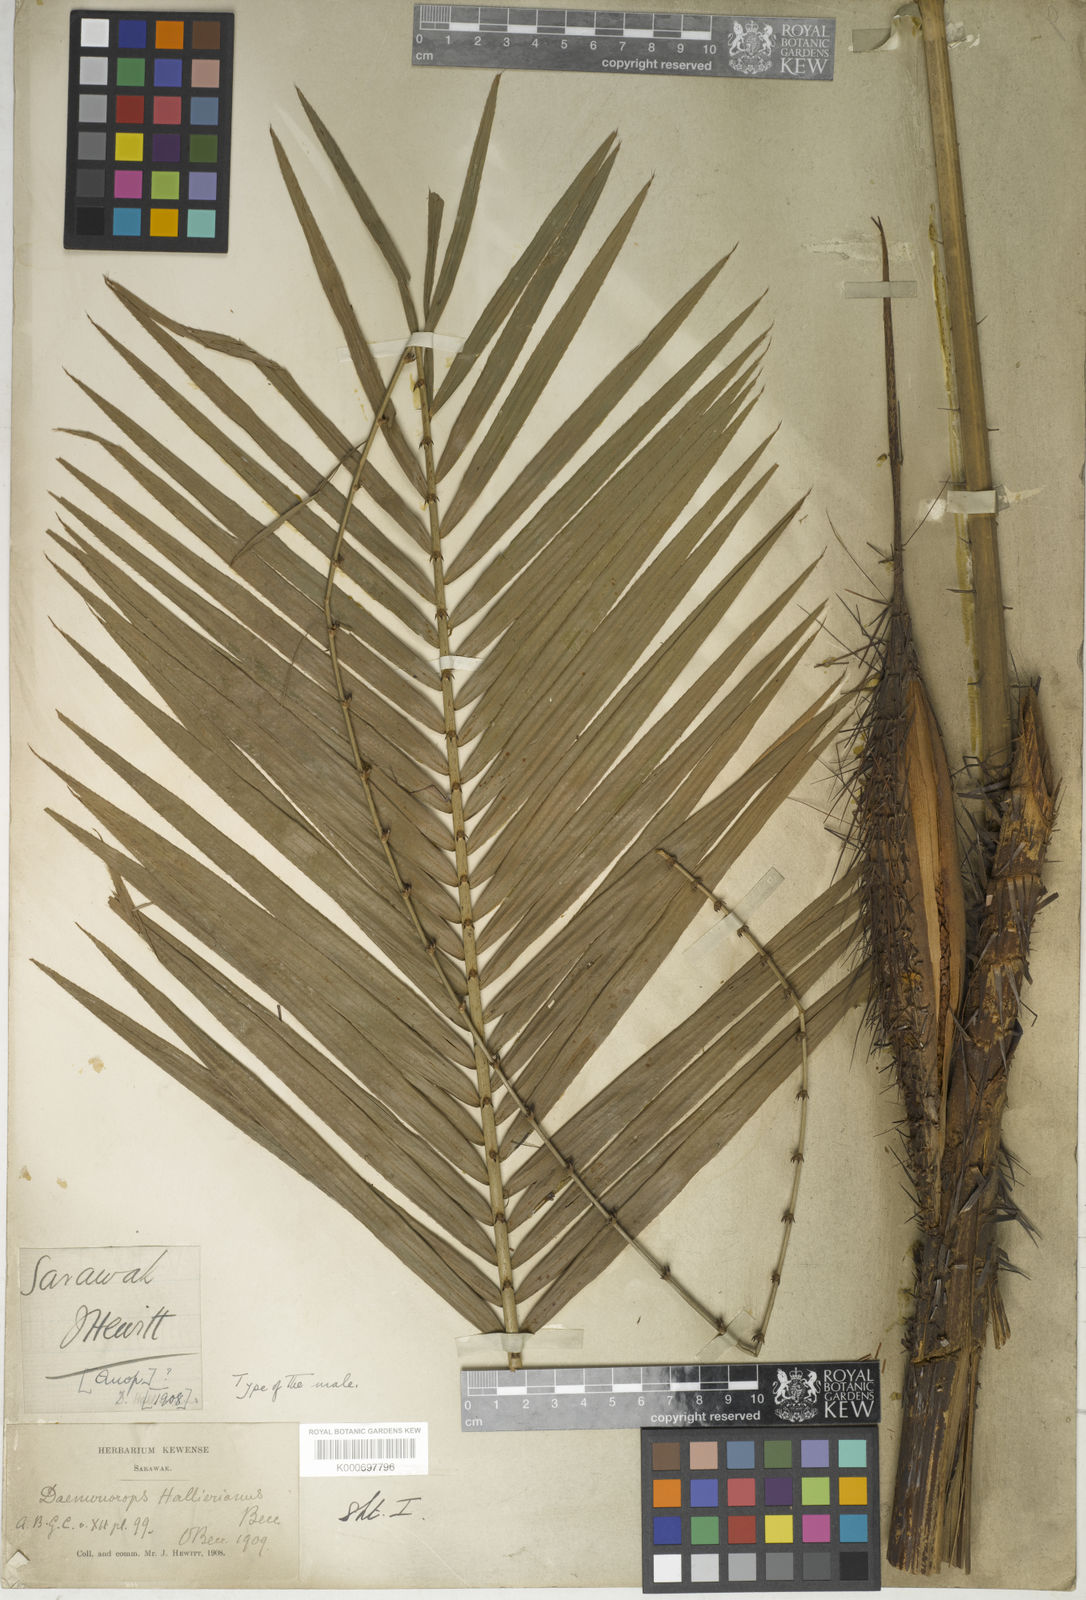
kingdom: Plantae
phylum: Tracheophyta
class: Liliopsida
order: Arecales
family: Arecaceae
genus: Calamus
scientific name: Calamus melanochaetes
